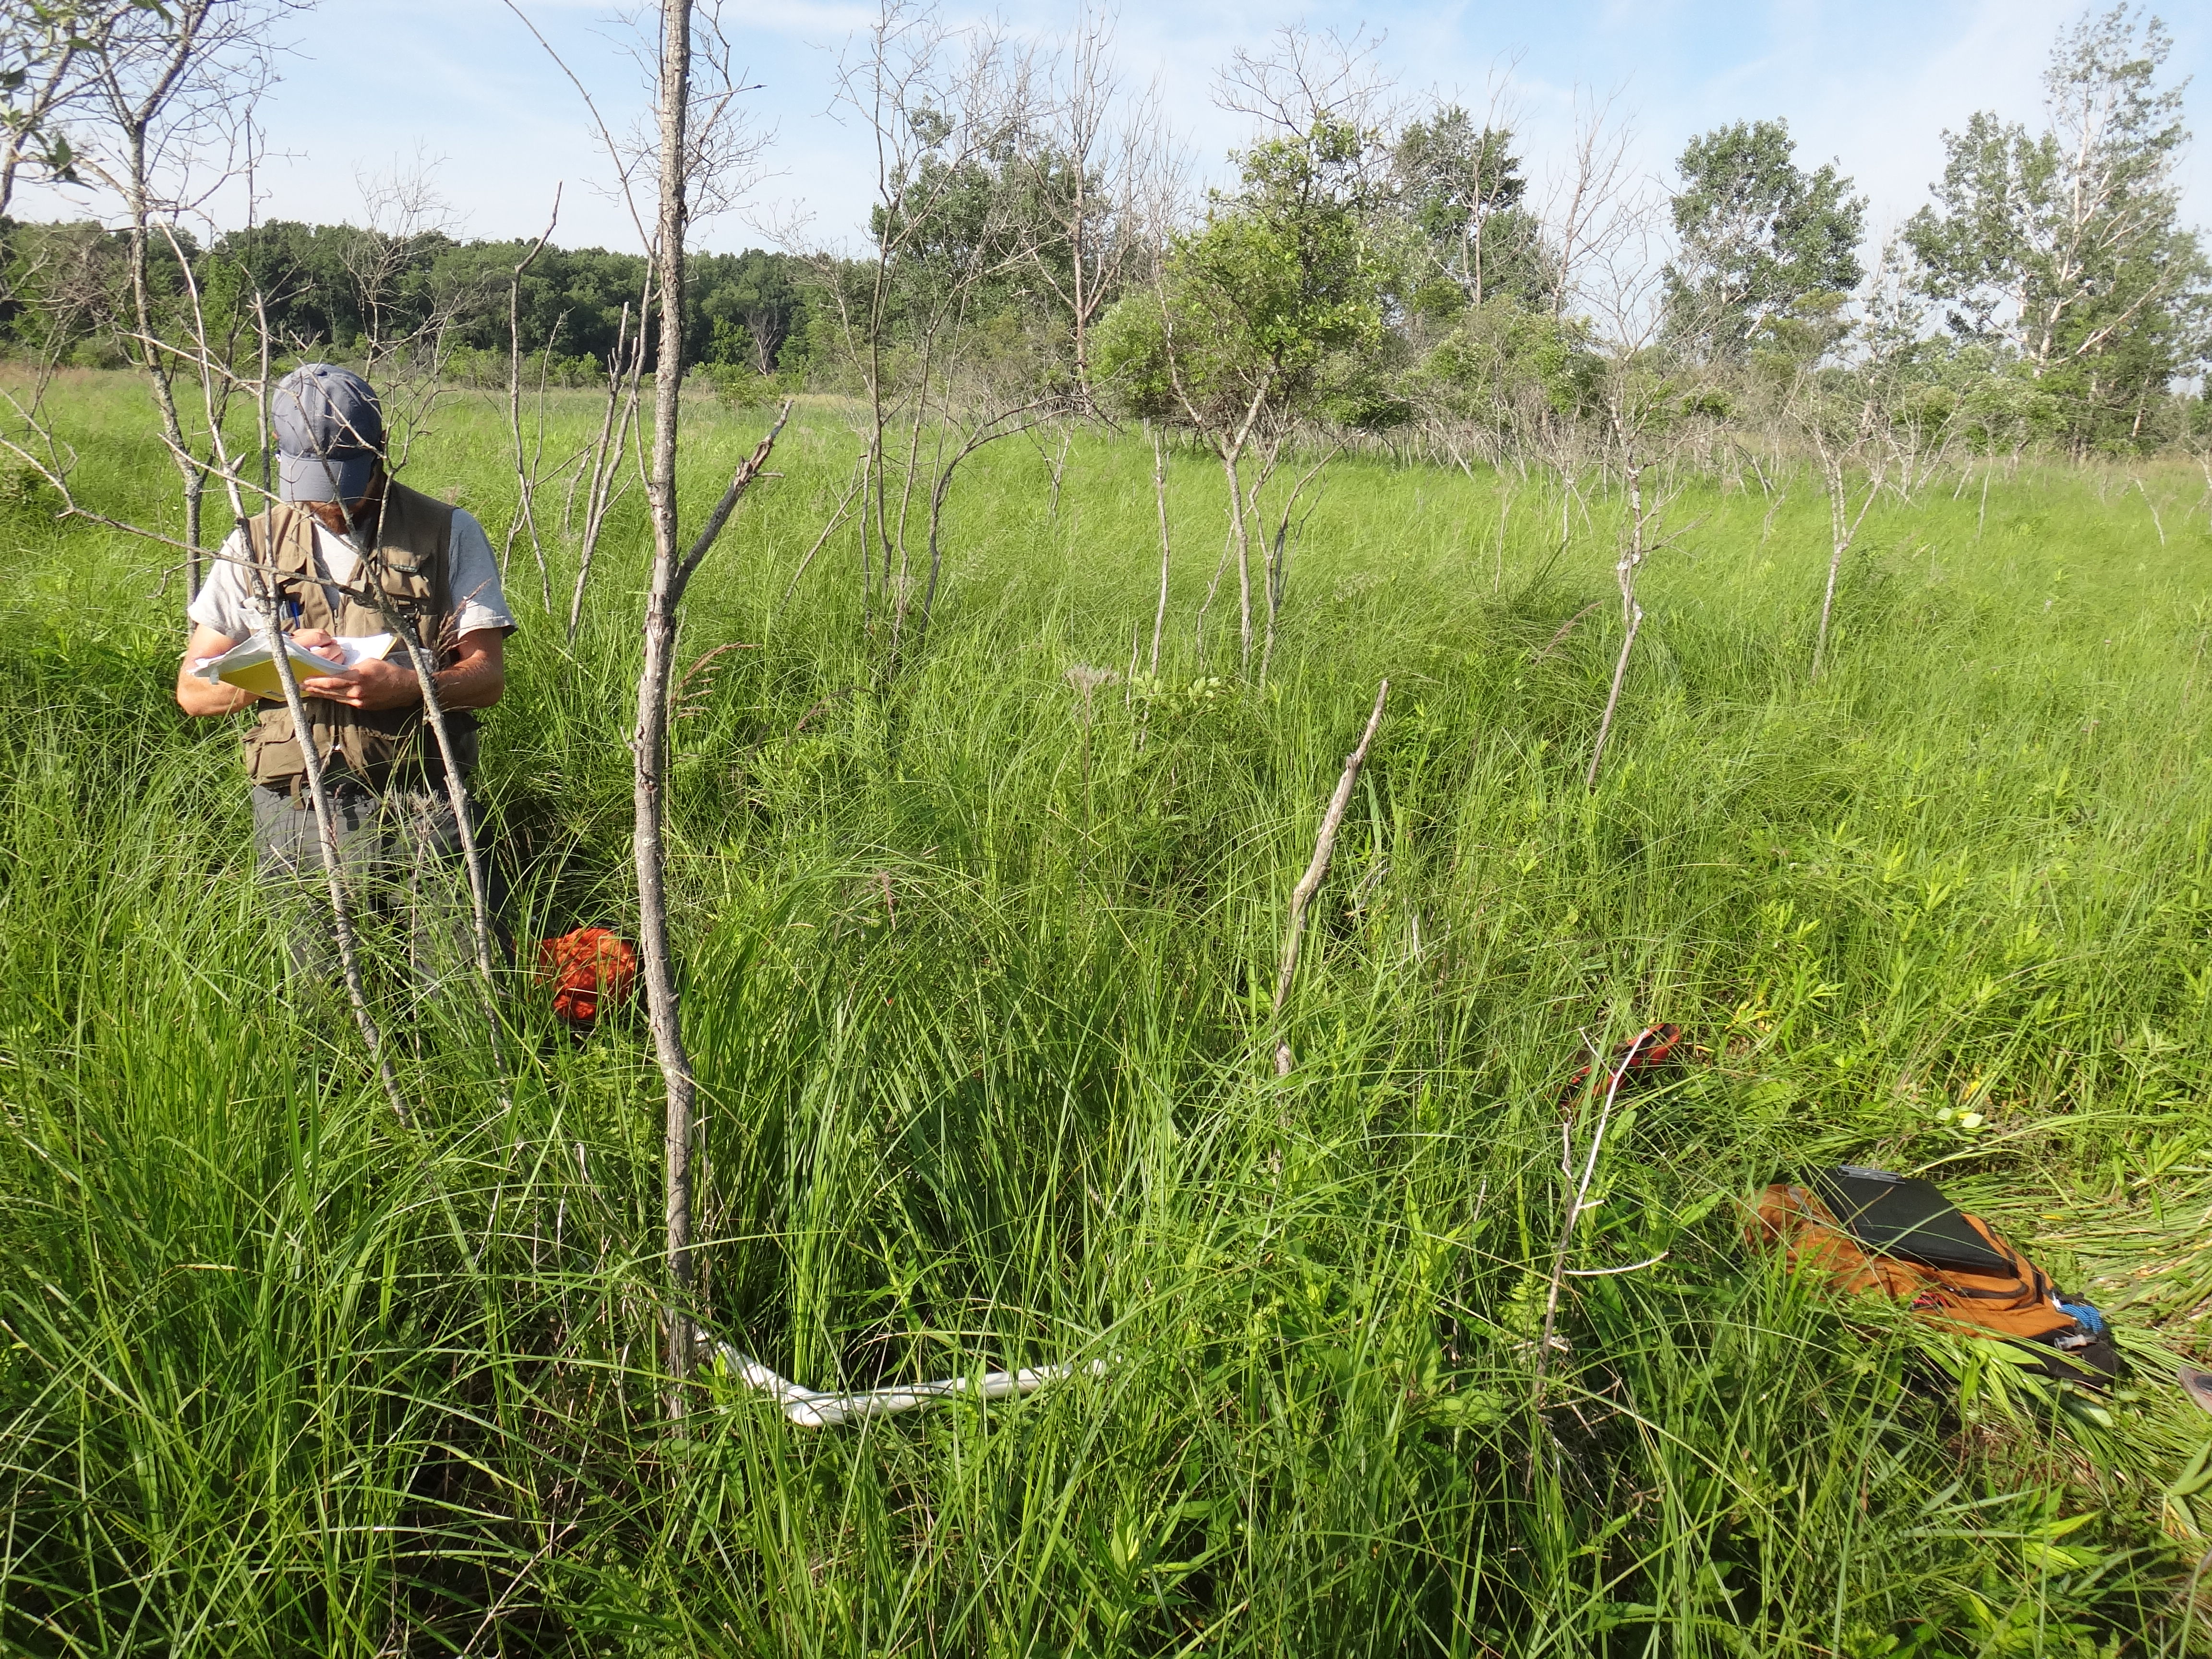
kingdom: Plantae
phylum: Tracheophyta
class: Magnoliopsida
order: Rosales
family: Rosaceae
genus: Spiraea
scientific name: Spiraea alba
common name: Pale bridewort
